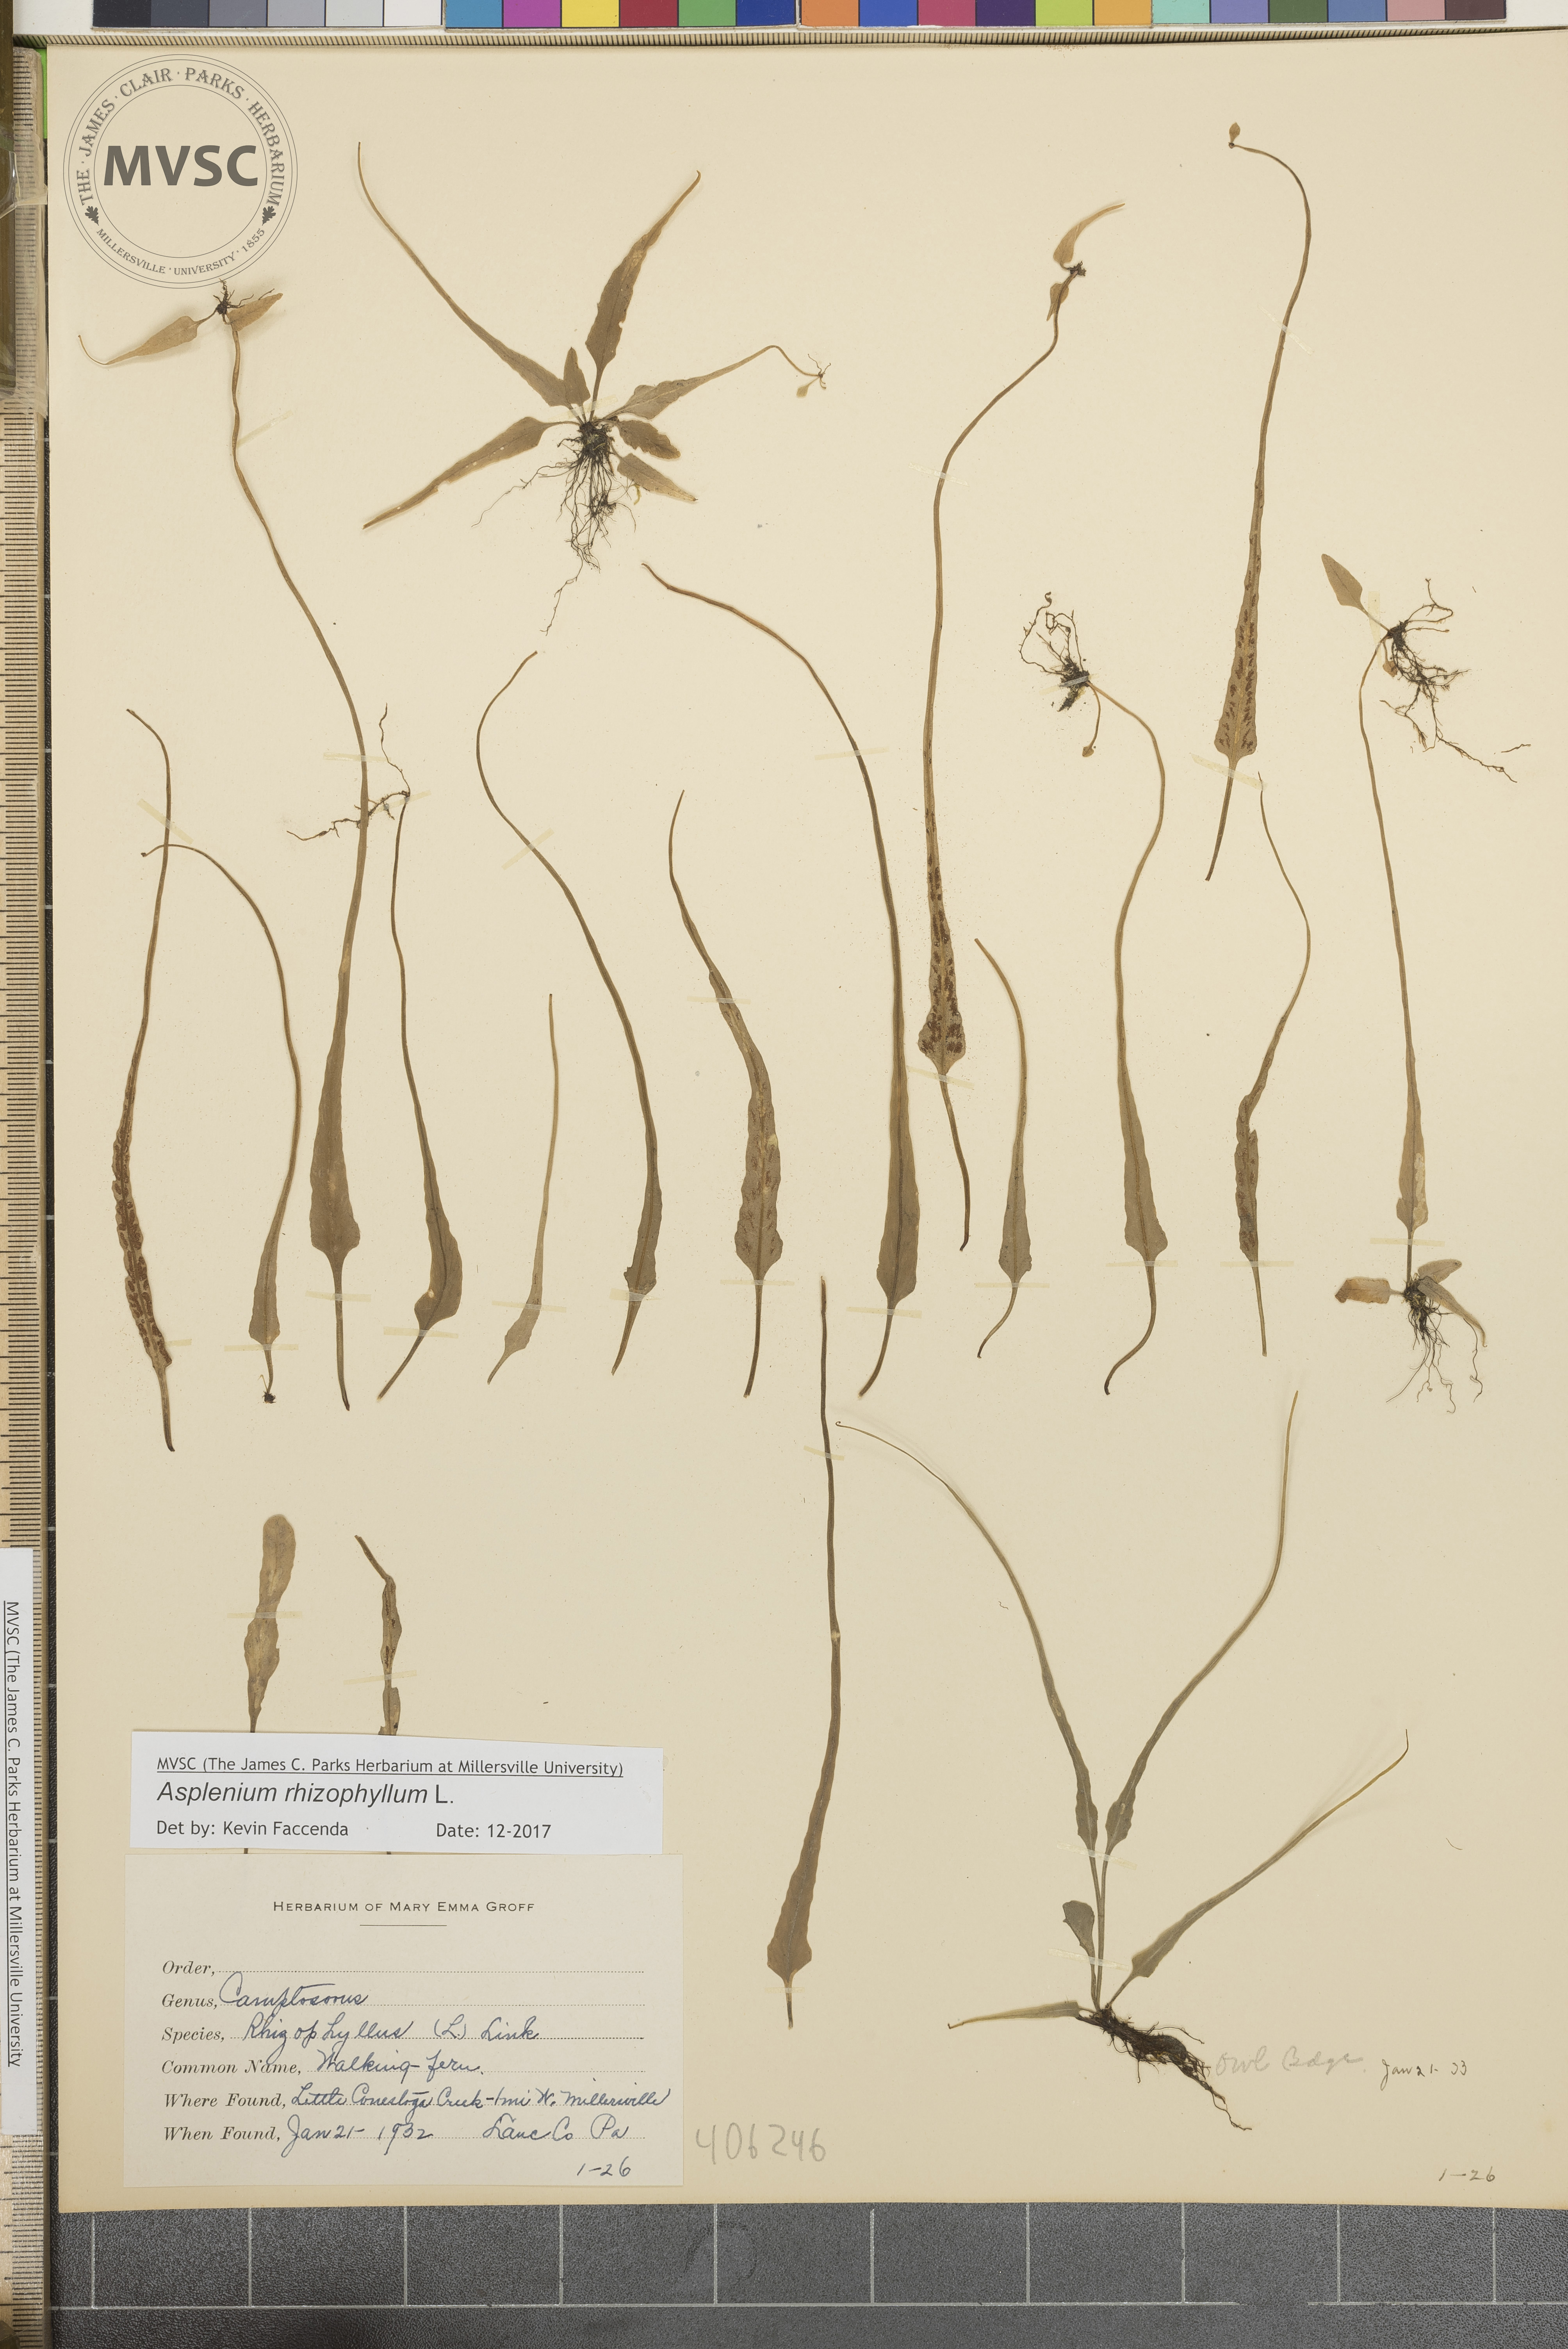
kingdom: Plantae
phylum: Tracheophyta
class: Polypodiopsida
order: Polypodiales
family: Aspleniaceae
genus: Asplenium
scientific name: Asplenium rhizophyllum
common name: Walking fern
